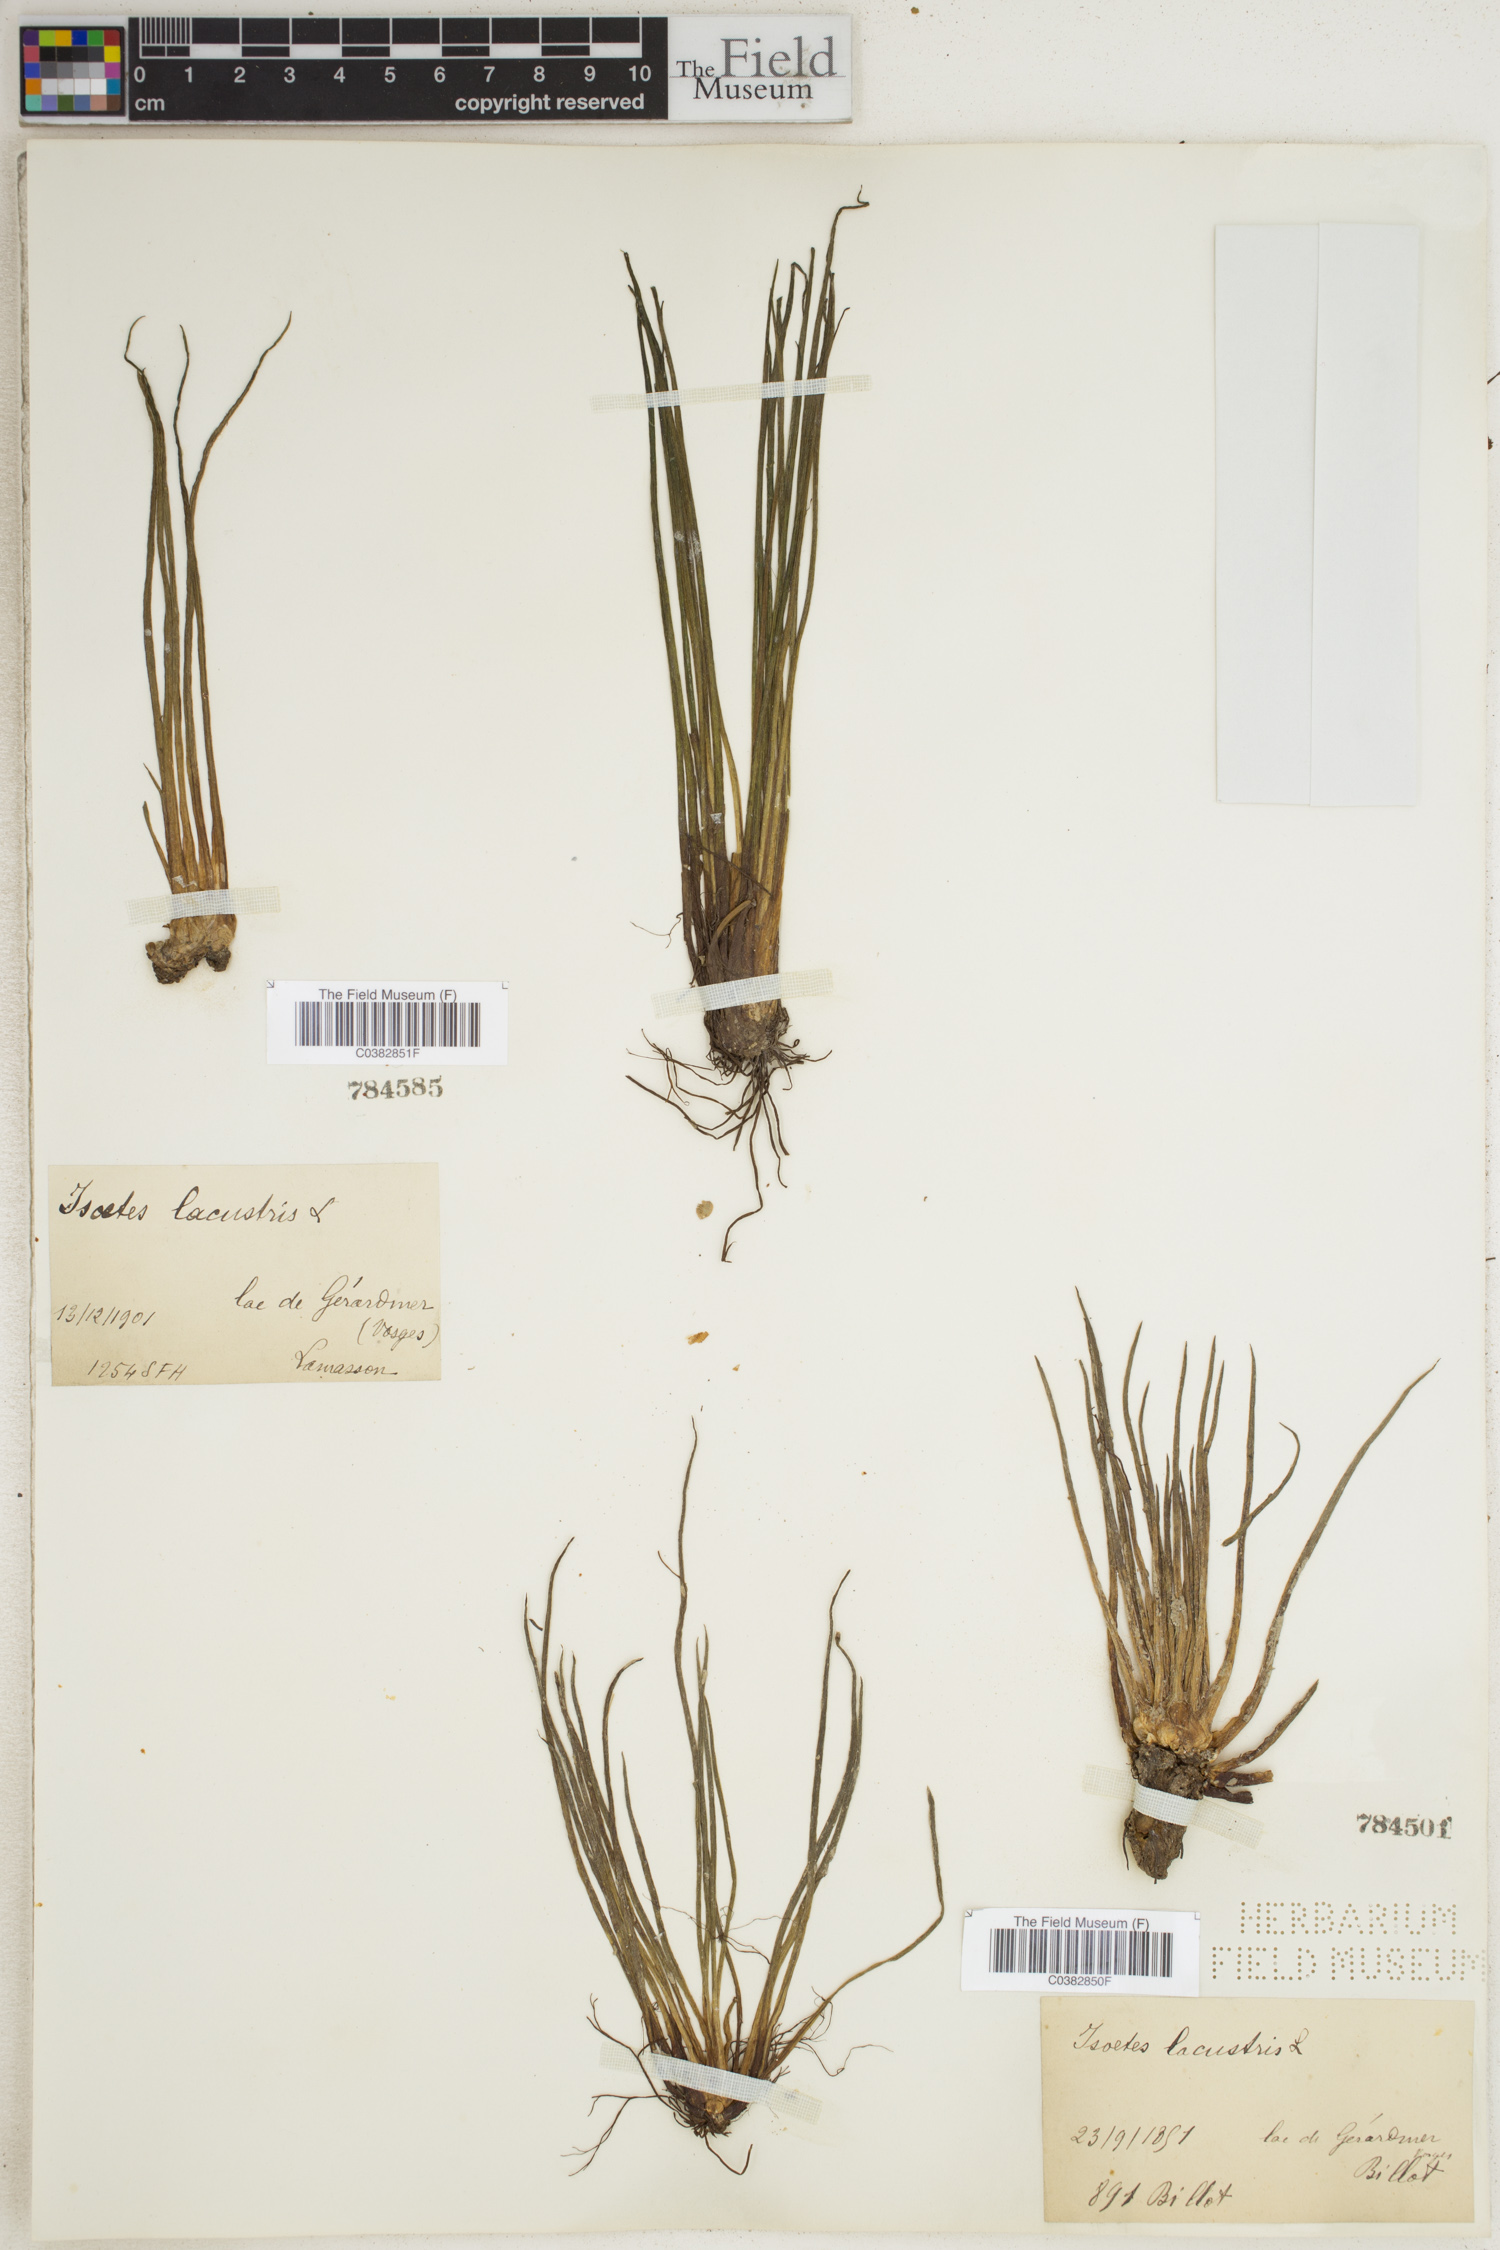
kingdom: Plantae
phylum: Tracheophyta
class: Lycopodiopsida
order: Isoetales
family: Isoetaceae
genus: Isoetes
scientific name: Isoetes lacustris
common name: Common quillwort
